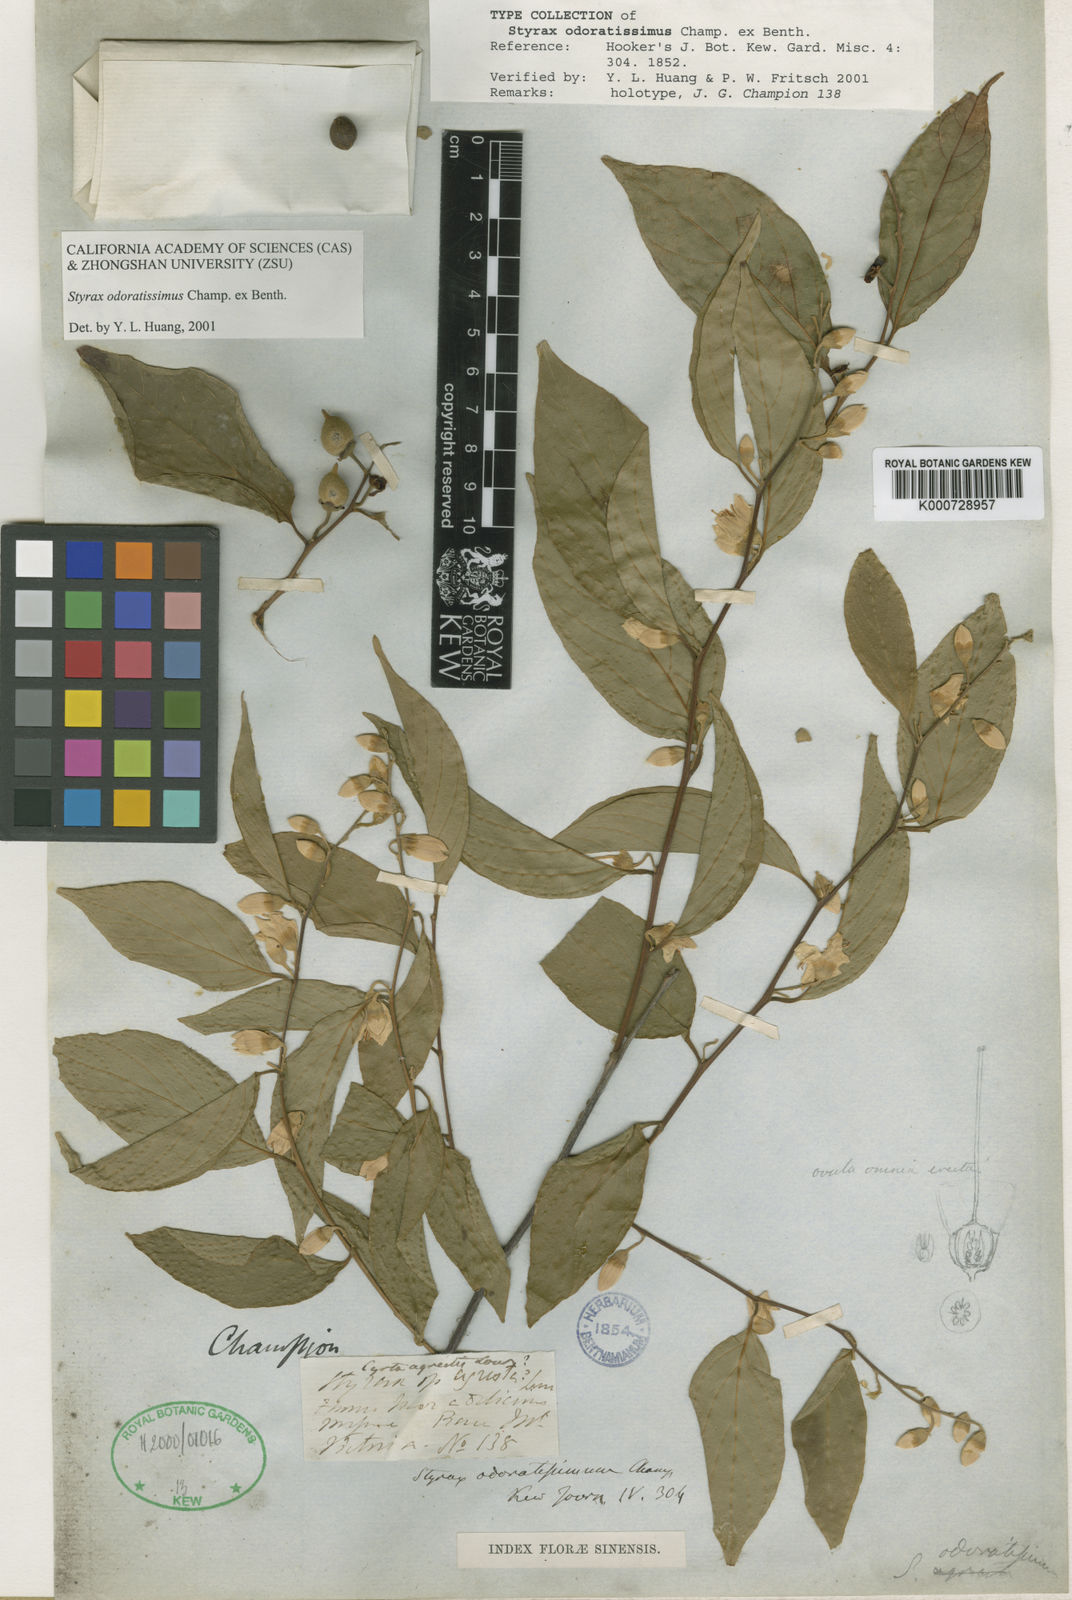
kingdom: Plantae
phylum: Tracheophyta
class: Magnoliopsida
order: Ericales
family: Styracaceae
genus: Styrax
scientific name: Styrax odoratissimus
